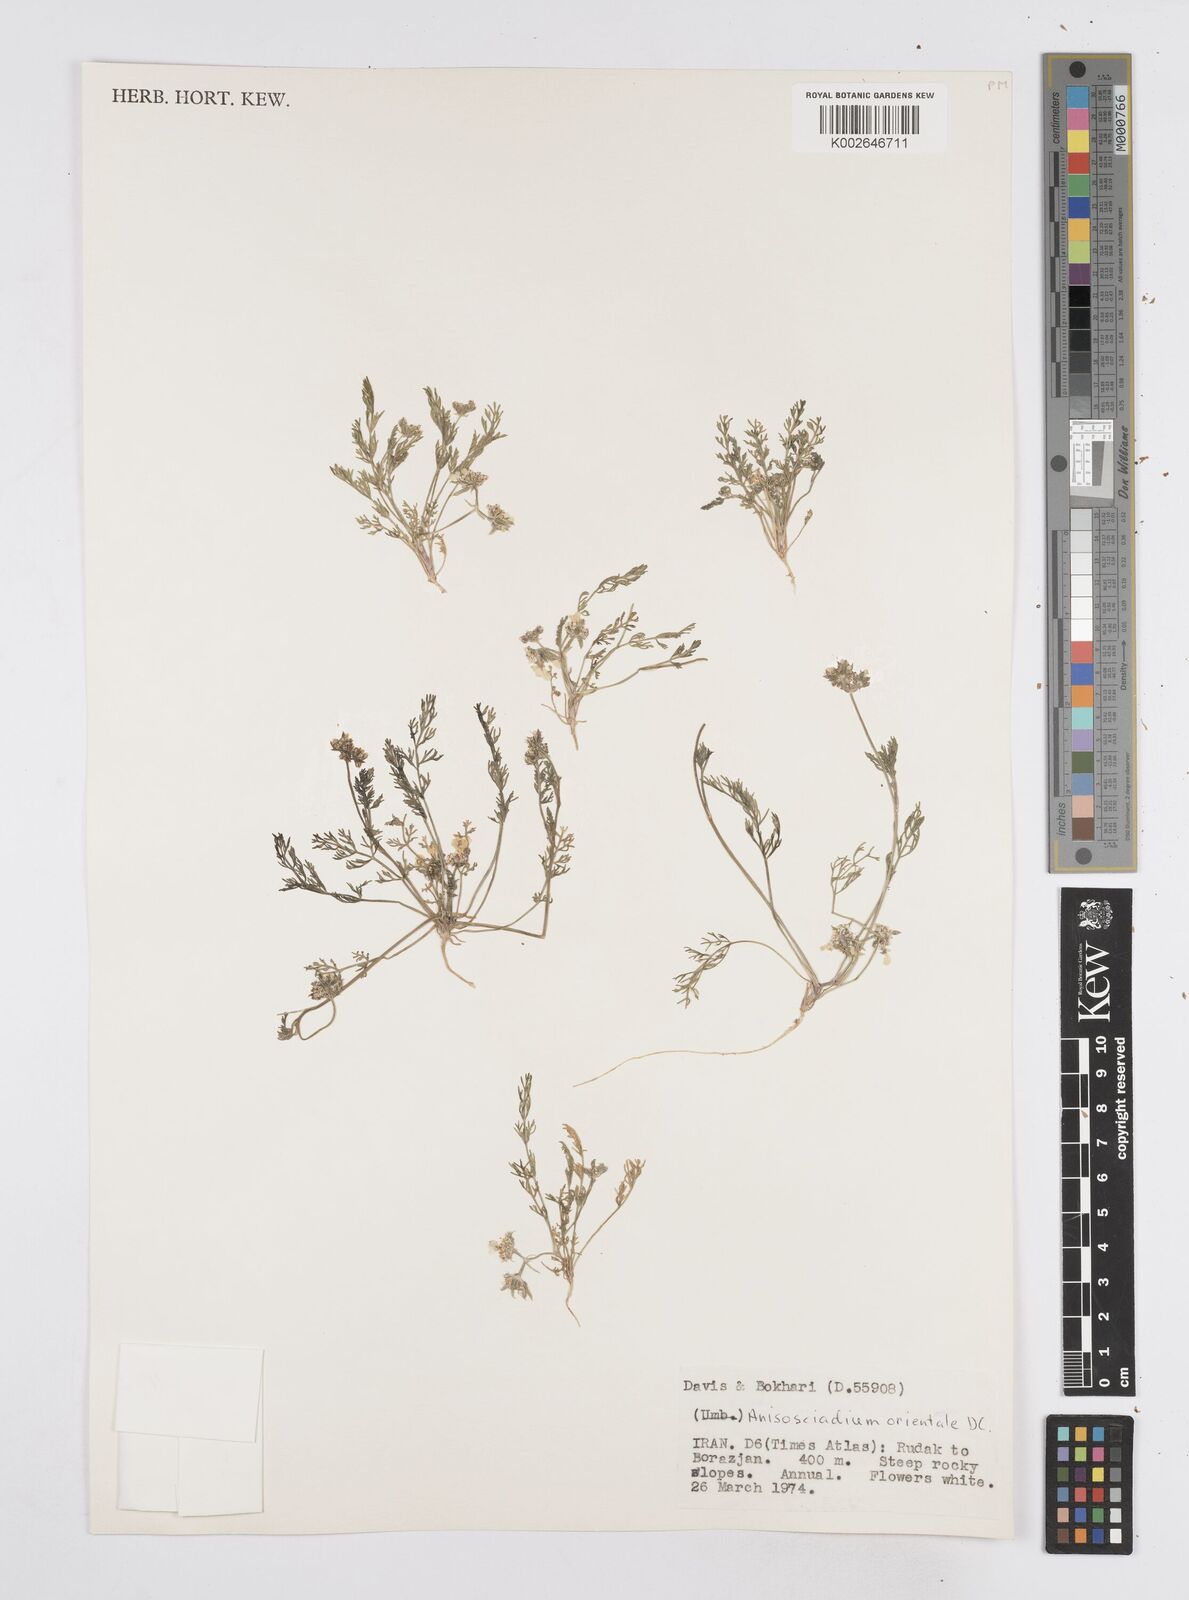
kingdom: Plantae
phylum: Tracheophyta
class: Magnoliopsida
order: Apiales
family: Apiaceae
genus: Anisosciadium
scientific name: Anisosciadium orientale
